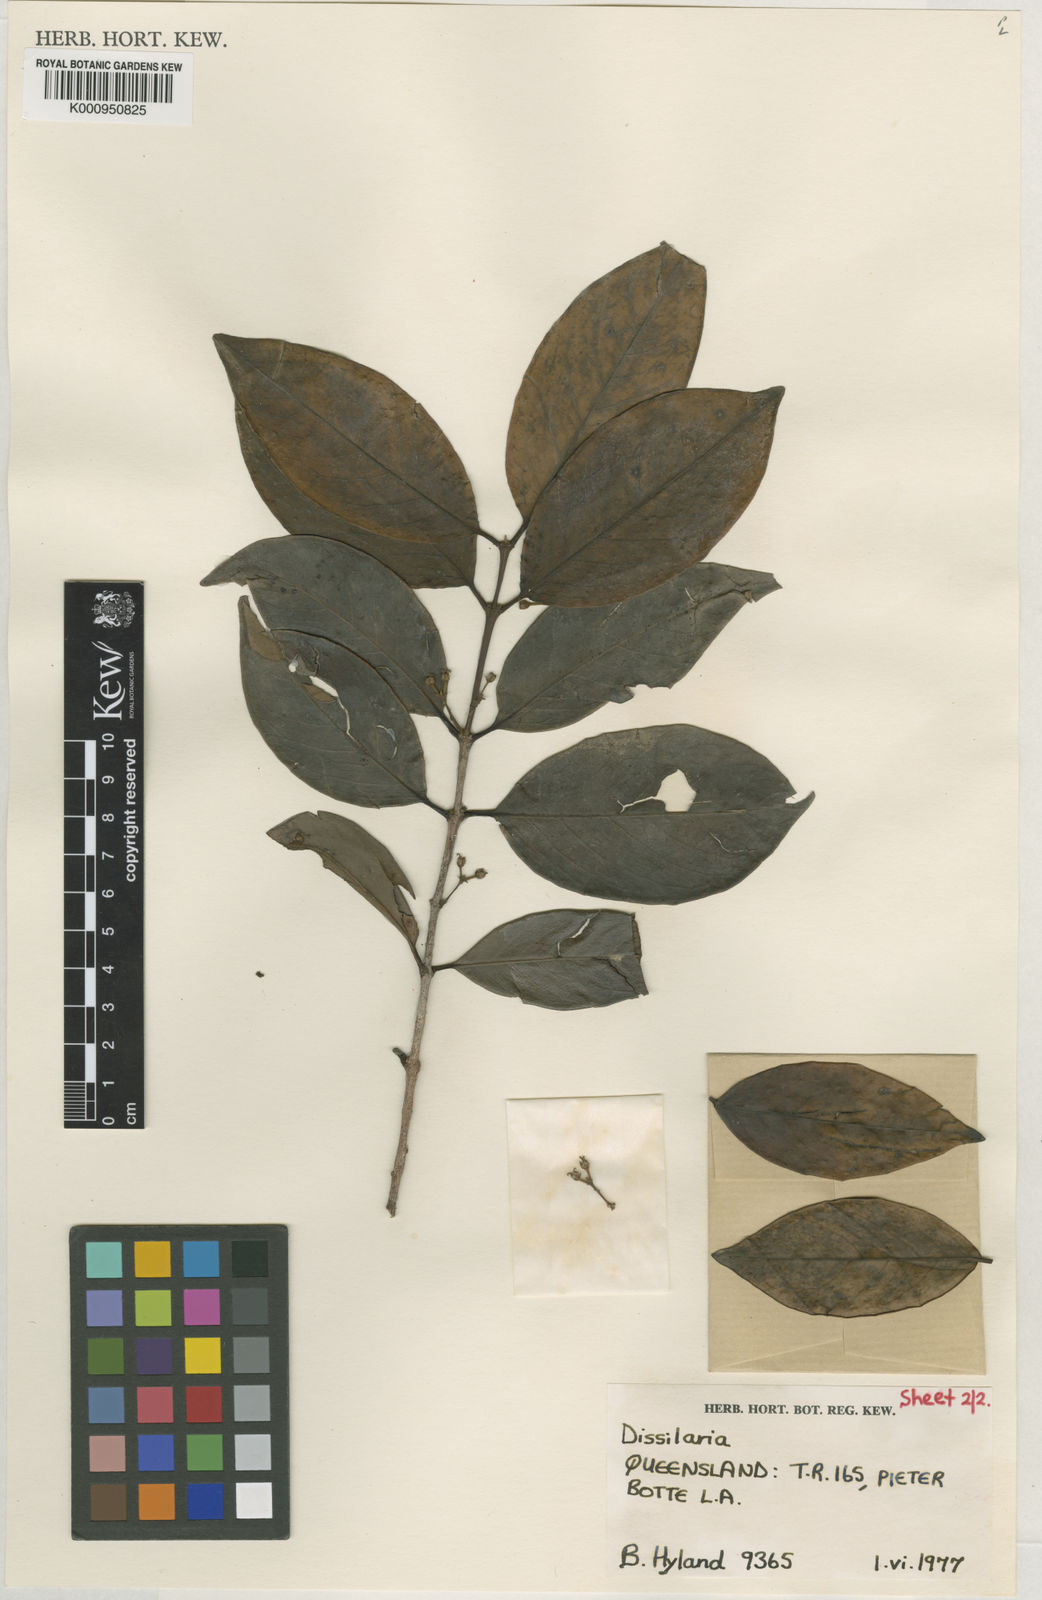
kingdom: Plantae
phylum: Tracheophyta
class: Magnoliopsida
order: Malpighiales
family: Picrodendraceae
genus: Choriceras
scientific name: Choriceras majus
